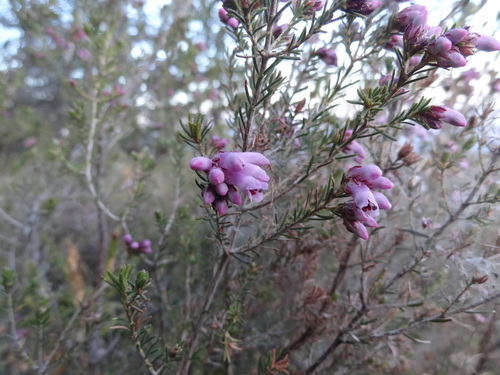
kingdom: Plantae
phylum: Tracheophyta
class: Magnoliopsida
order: Ericales
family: Ericaceae
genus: Erica
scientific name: Erica australis
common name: Spanish heath
